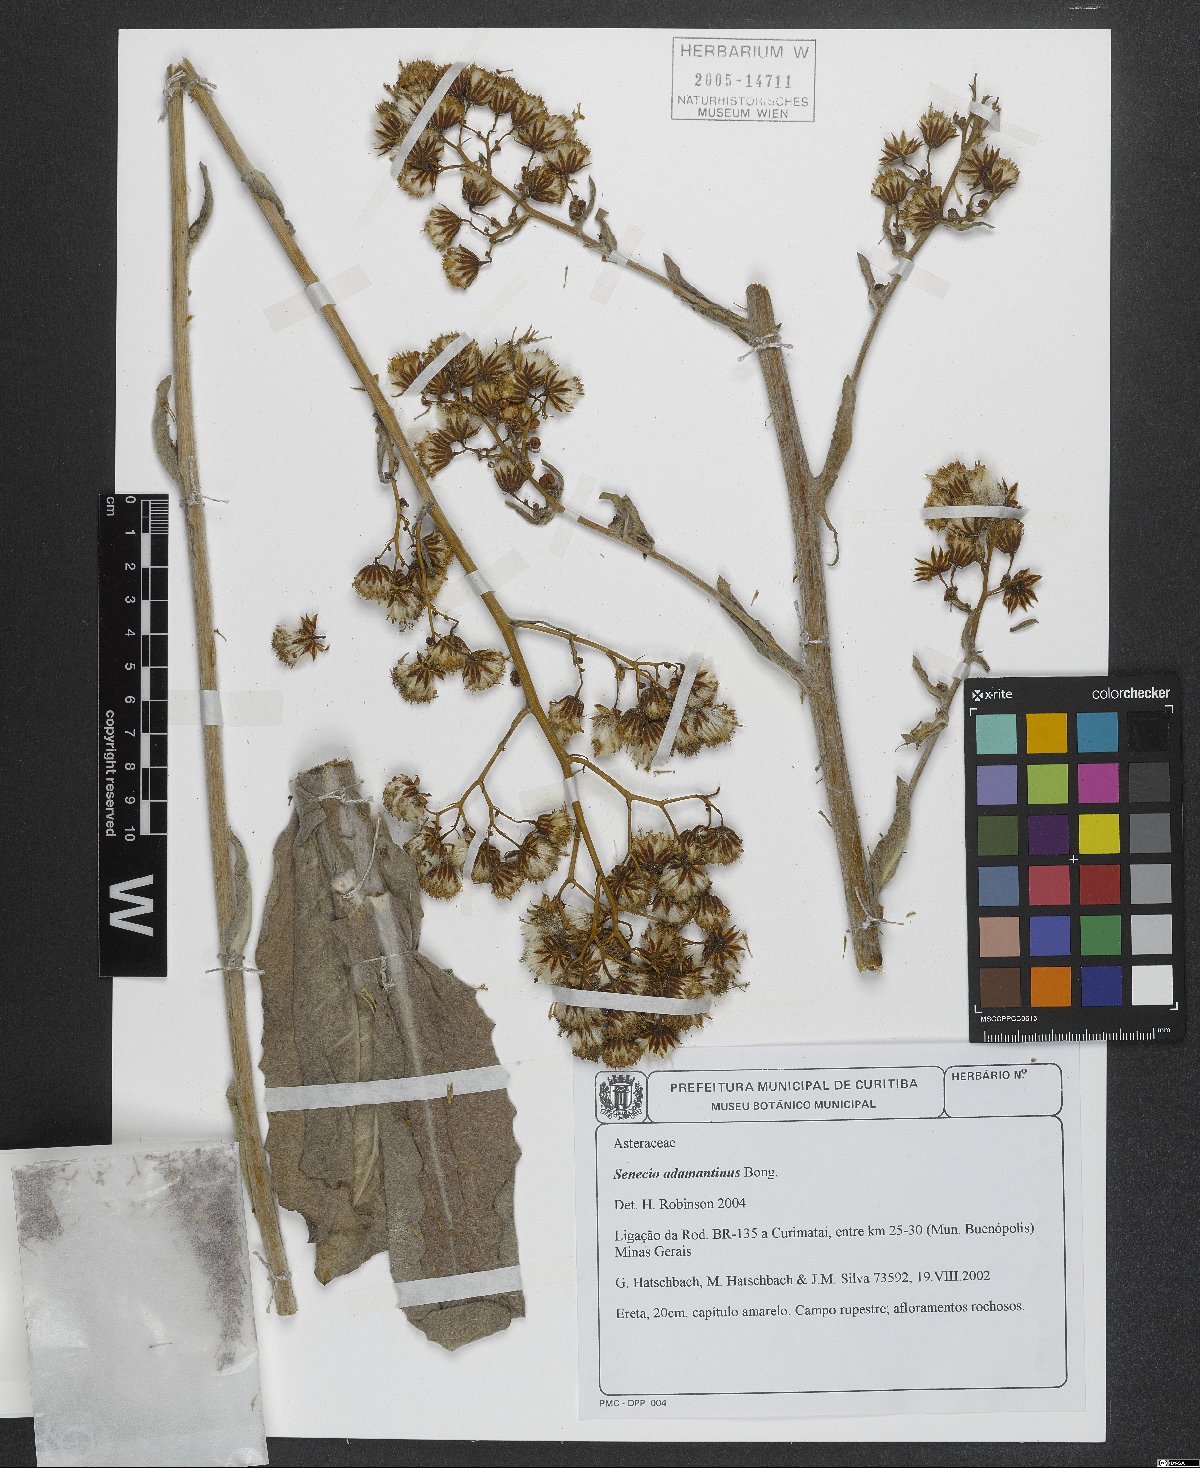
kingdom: Plantae
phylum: Tracheophyta
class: Magnoliopsida
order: Asterales
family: Asteraceae
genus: Senecio
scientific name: Senecio adamantinus
